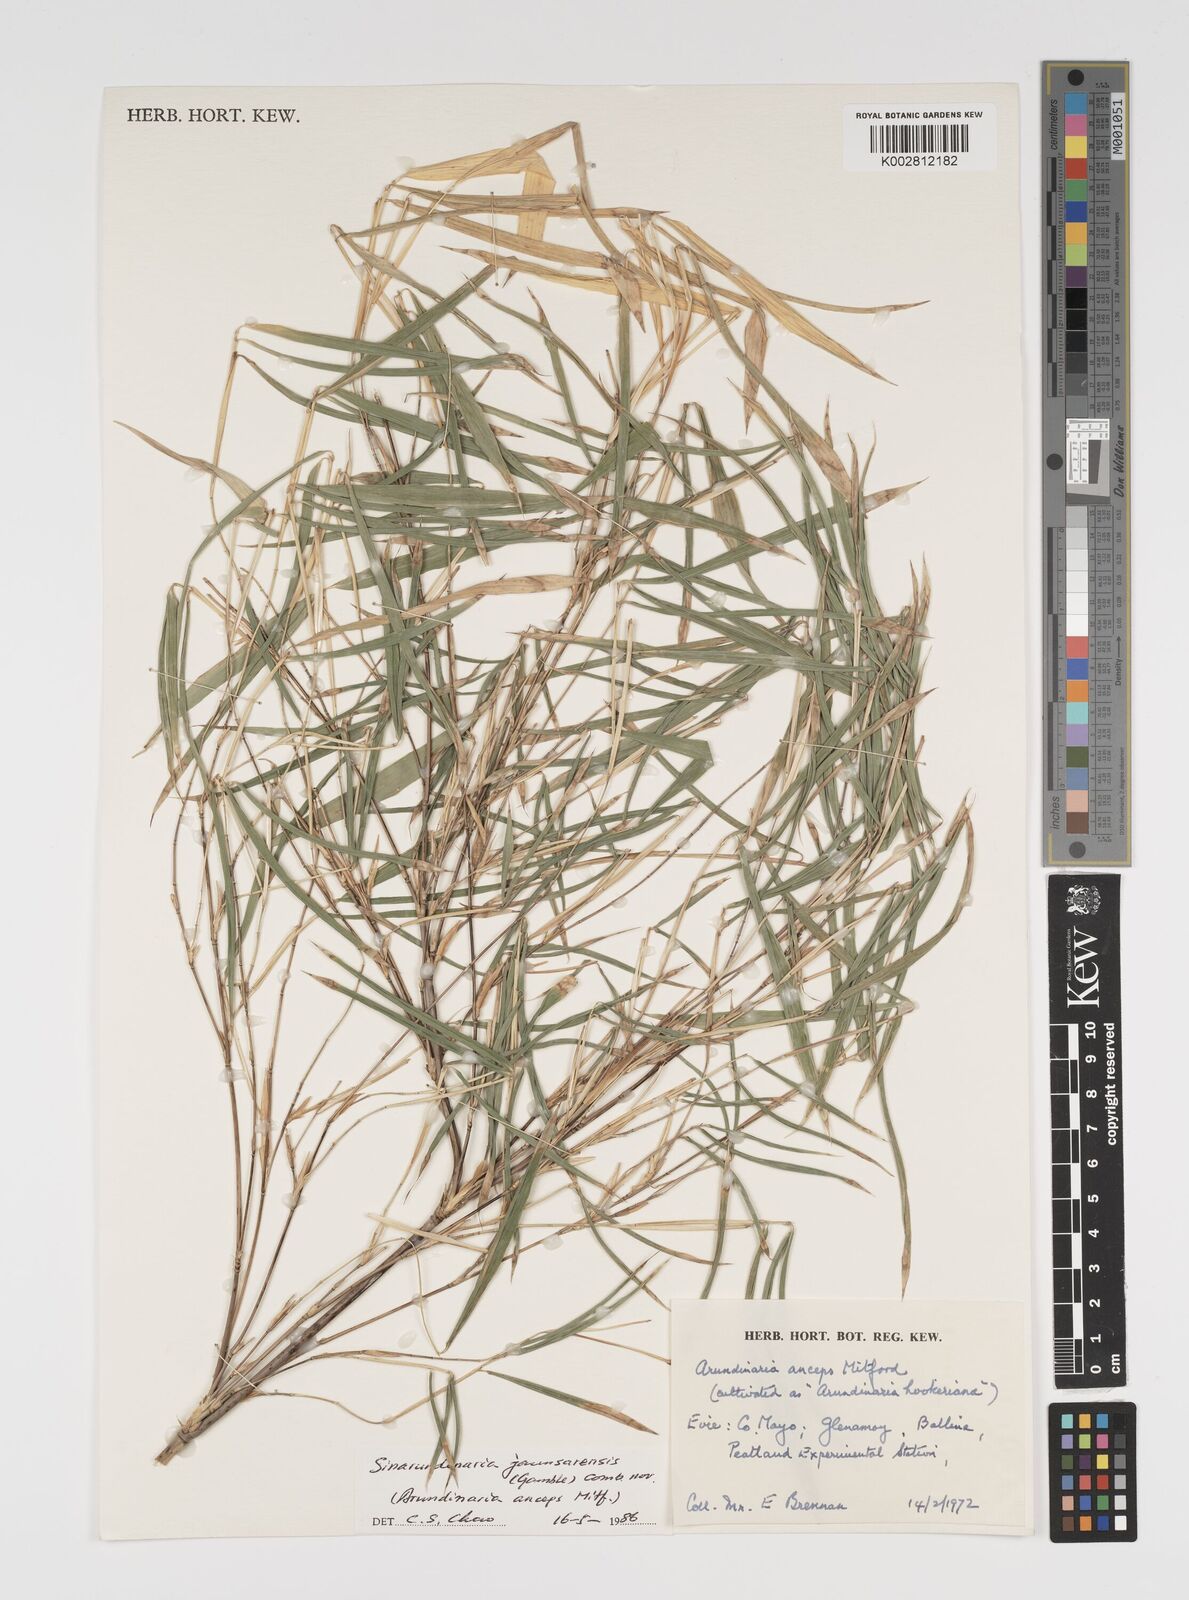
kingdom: Plantae
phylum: Tracheophyta
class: Liliopsida
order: Poales
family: Poaceae
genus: Yushania
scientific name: Yushania anceps
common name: Indian fountain-bamboo
